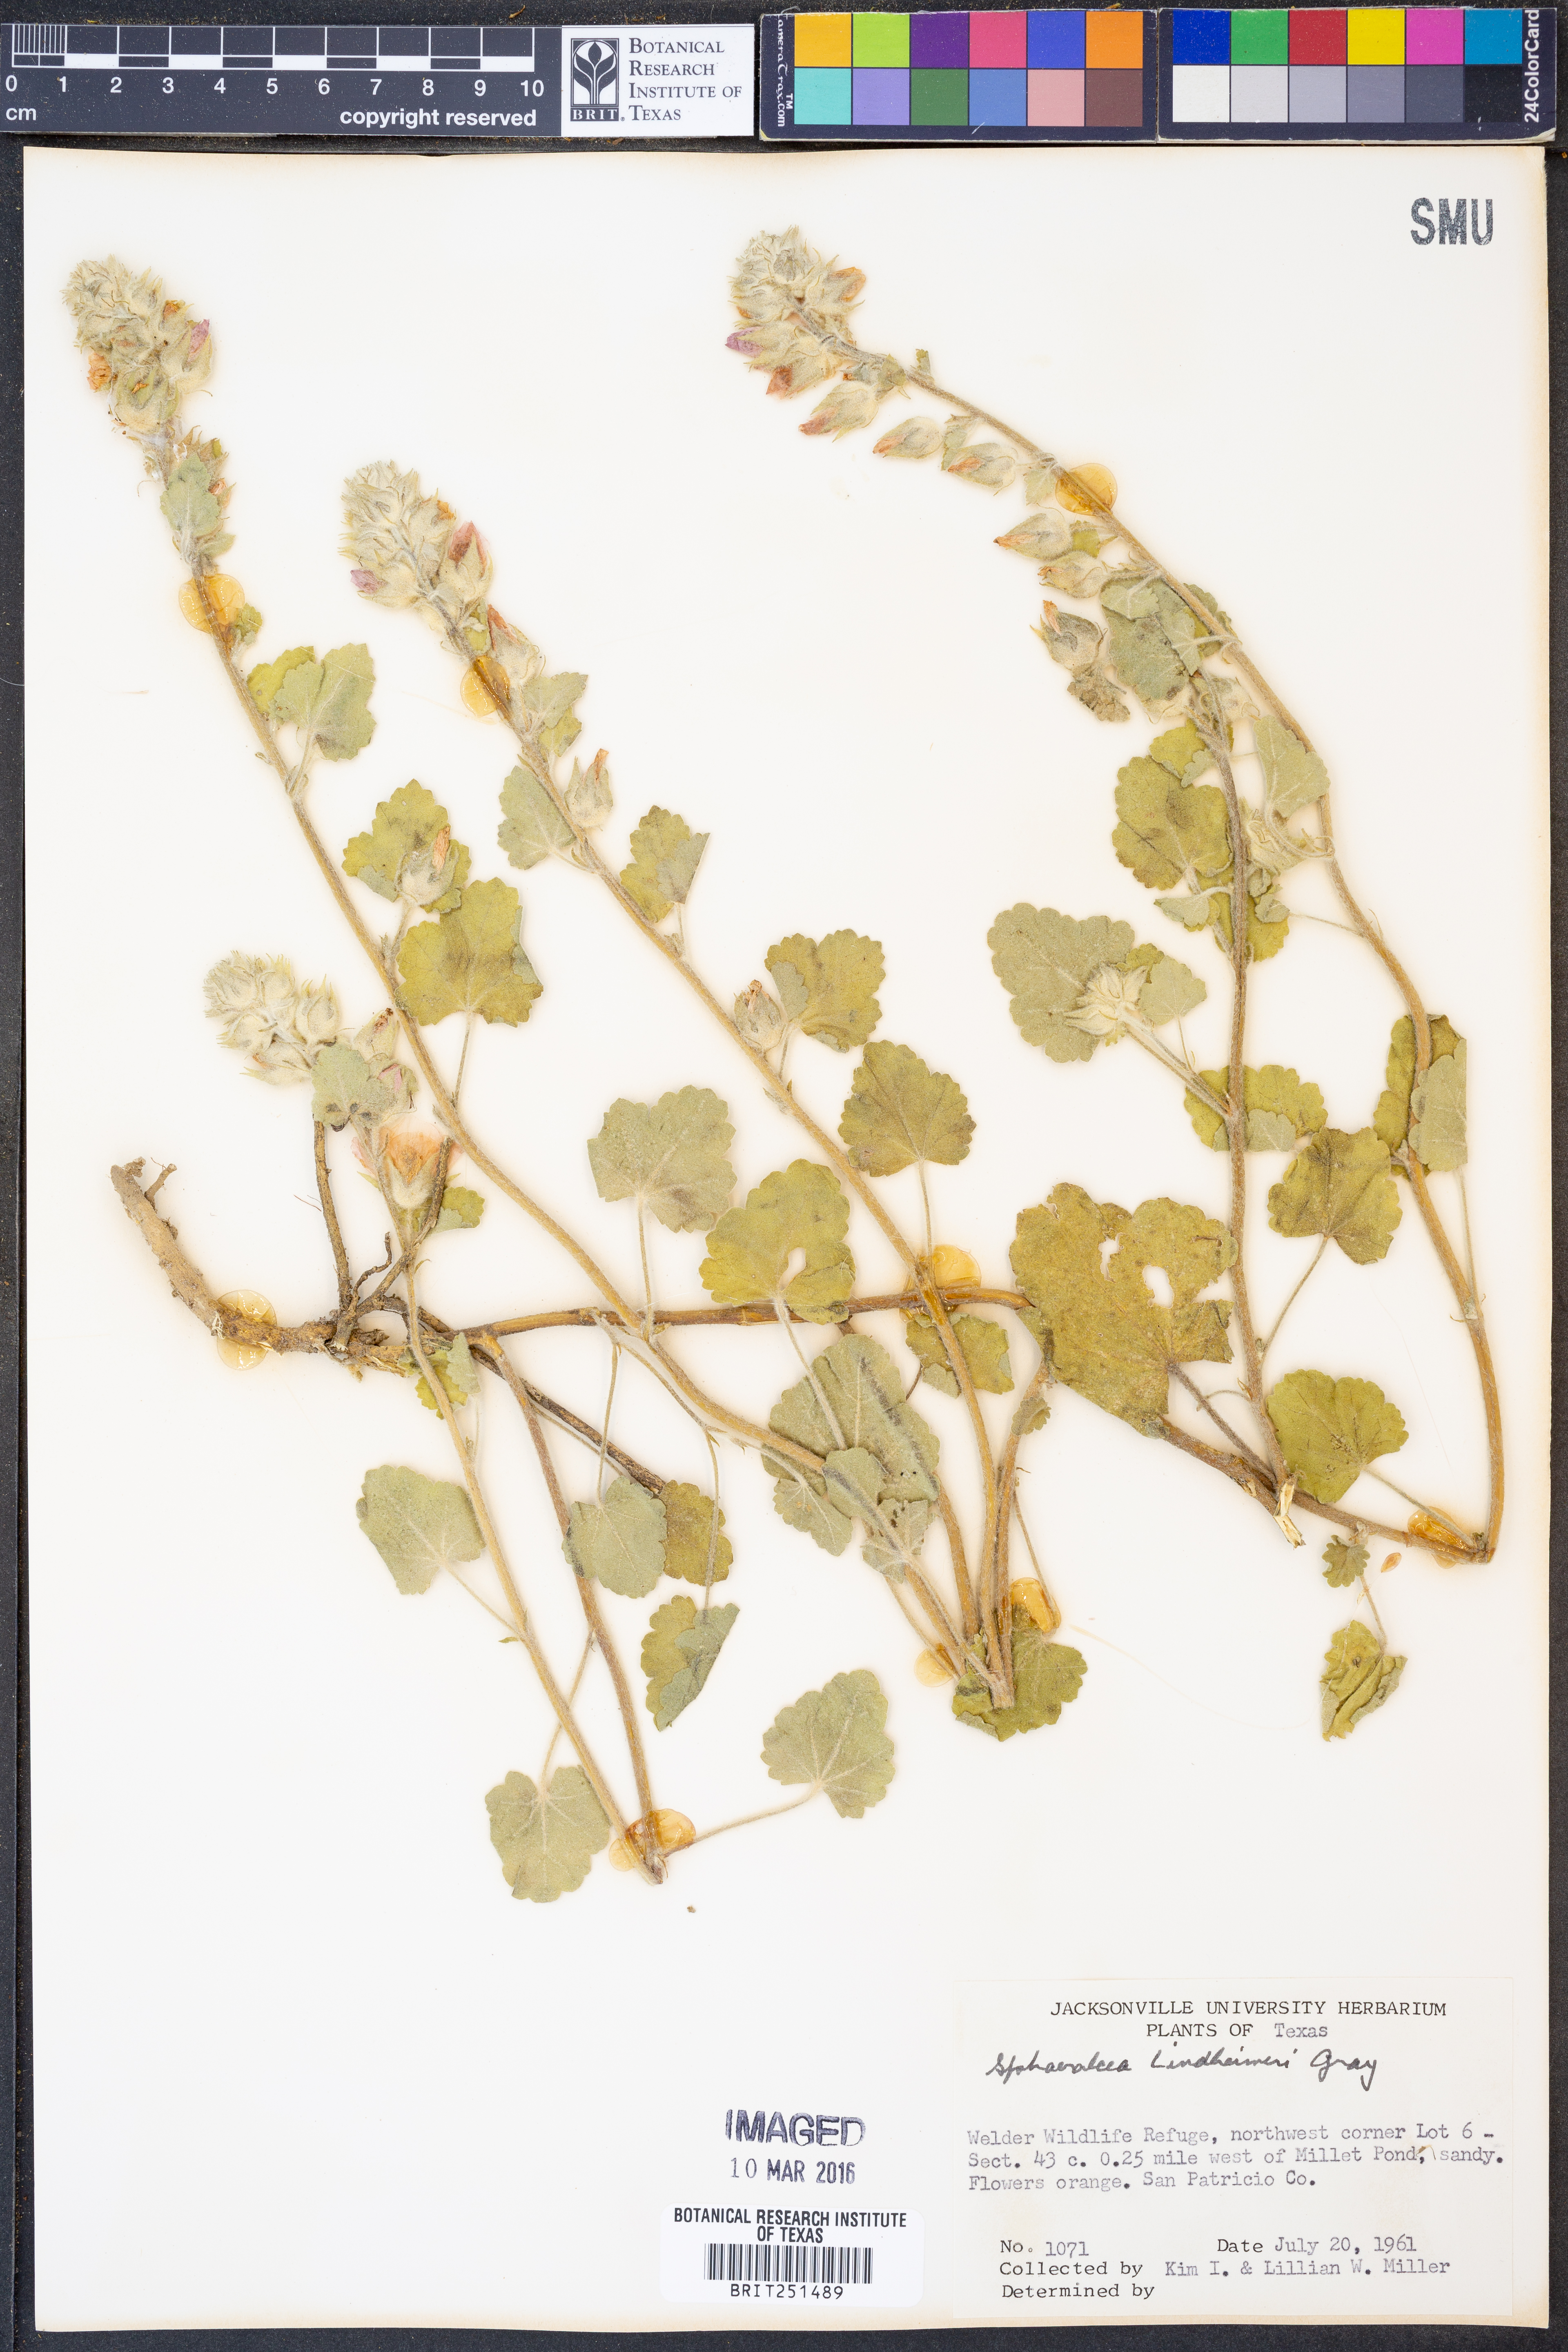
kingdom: Plantae
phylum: Tracheophyta
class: Magnoliopsida
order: Malvales
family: Malvaceae
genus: Sphaeralcea
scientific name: Sphaeralcea lindheimeri
